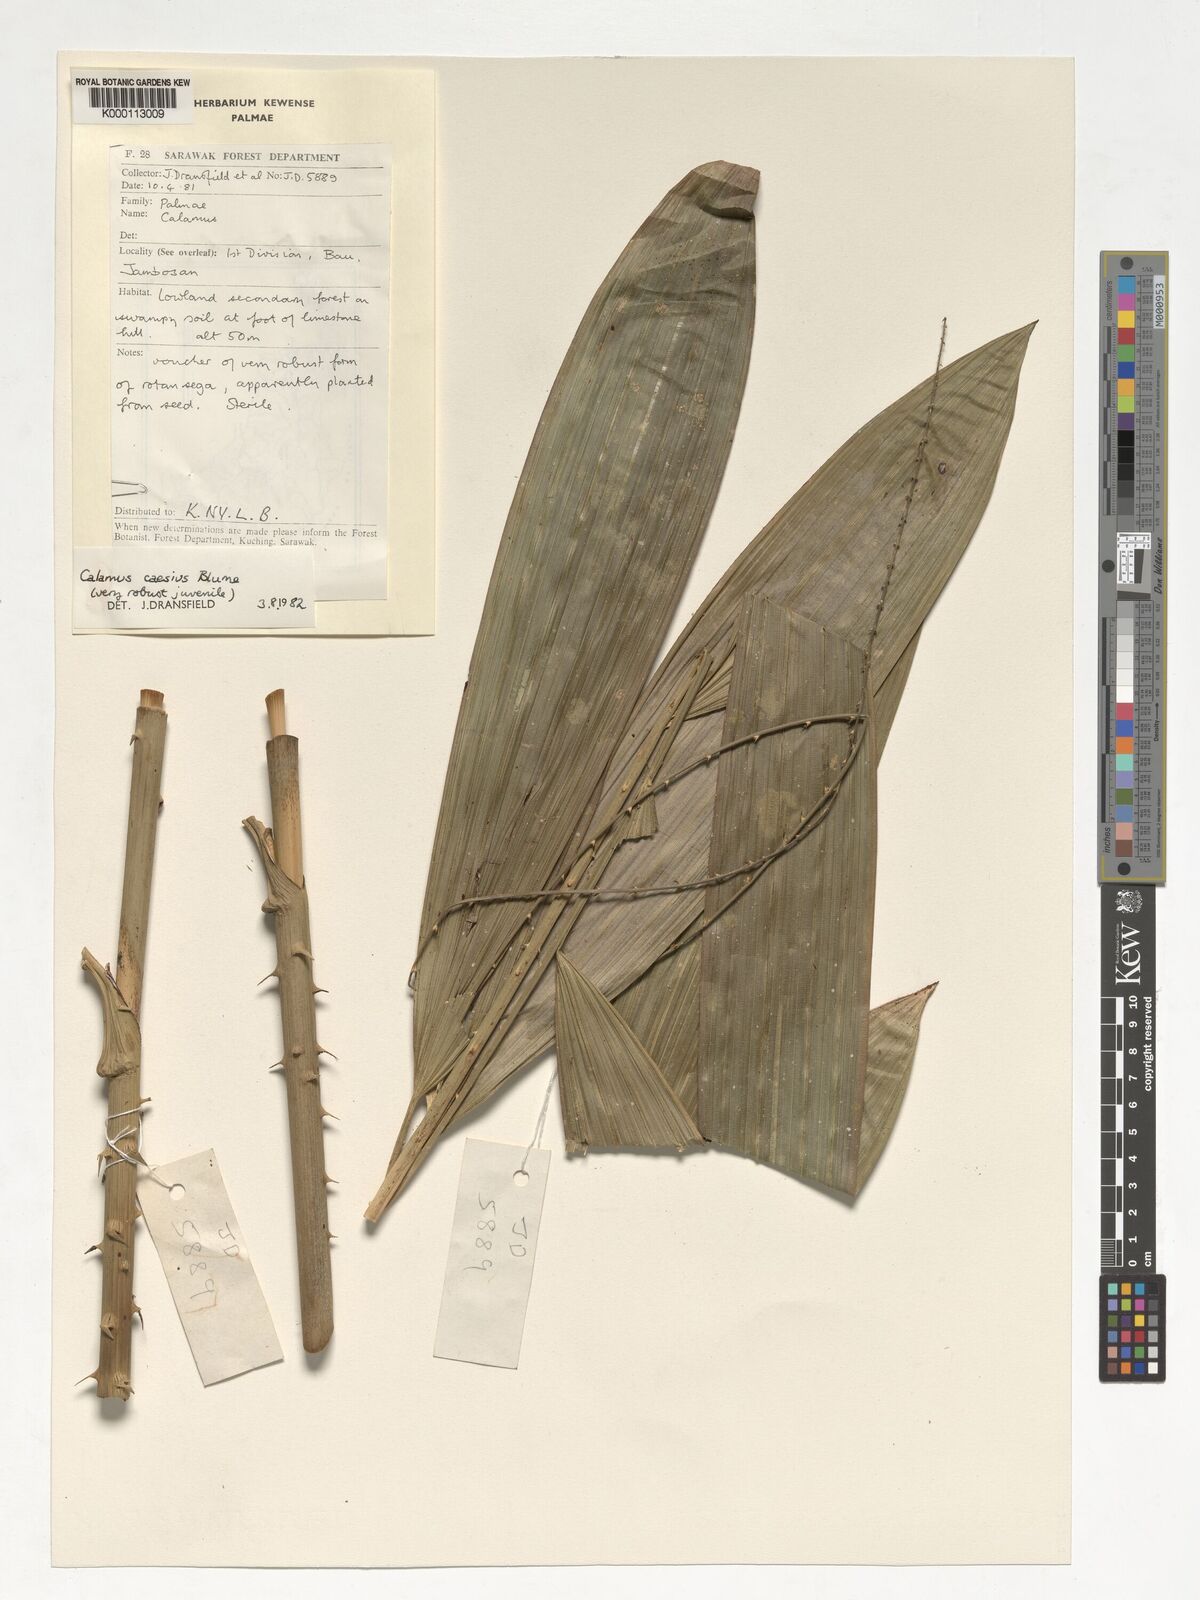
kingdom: Plantae
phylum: Tracheophyta
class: Liliopsida
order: Arecales
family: Arecaceae
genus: Calamus
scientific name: Calamus caesius
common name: Rattan palm
